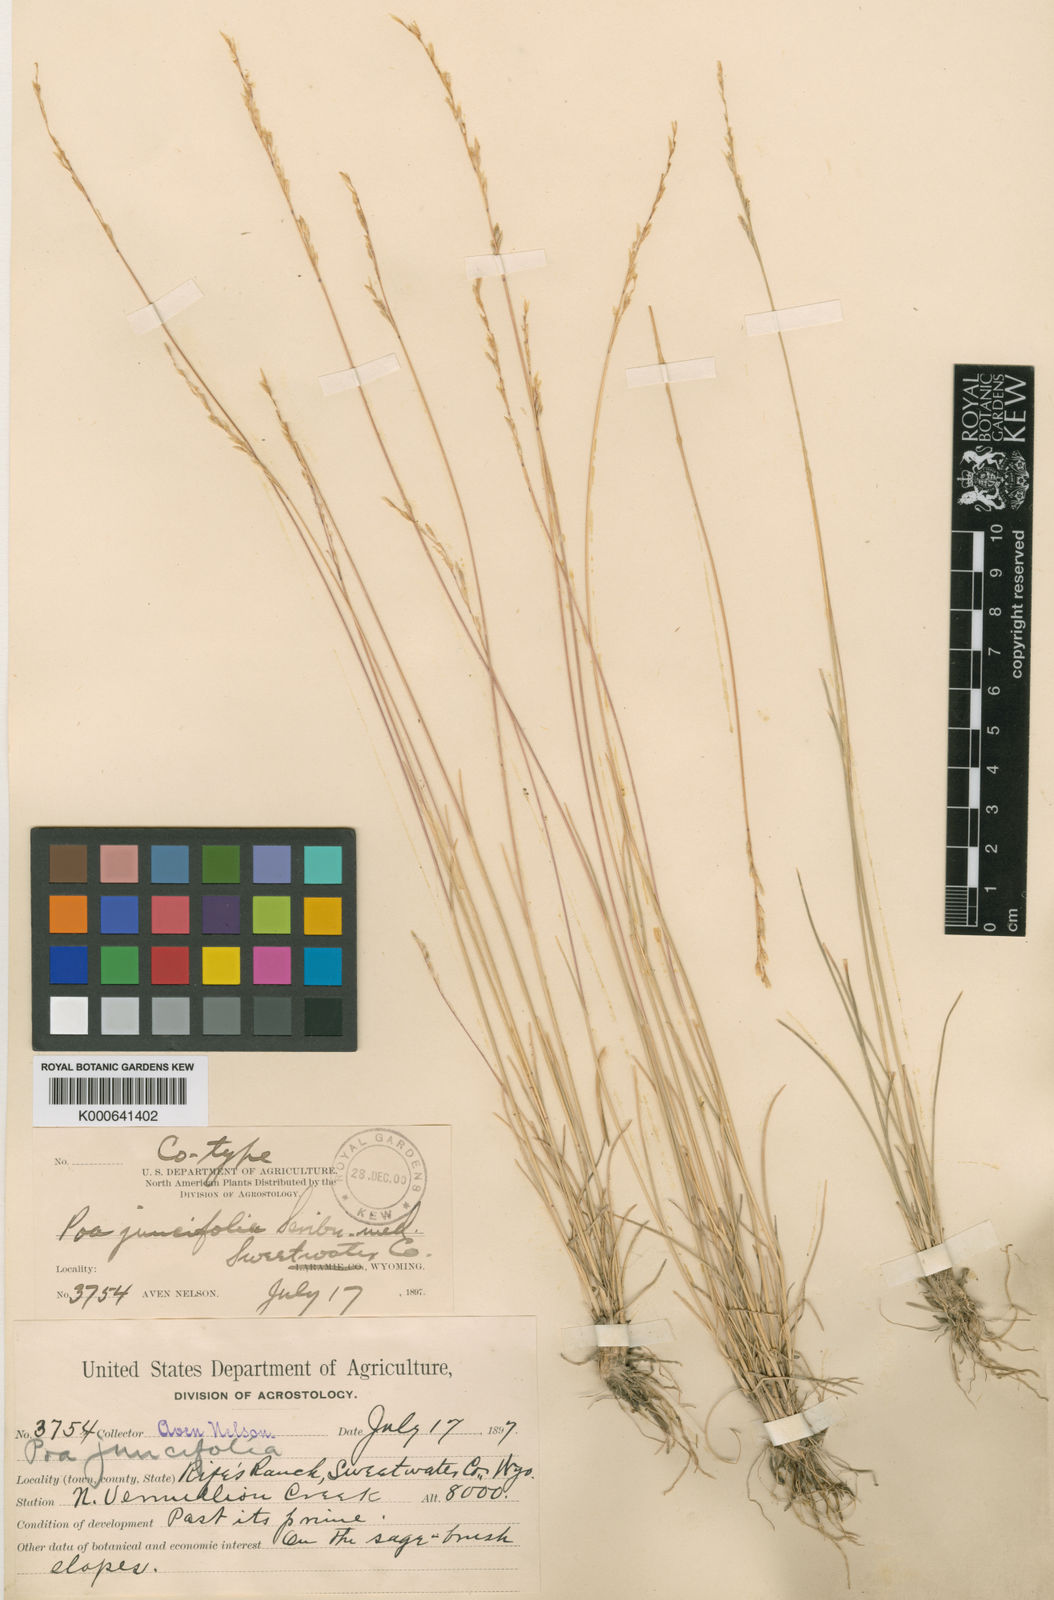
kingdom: Plantae
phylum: Tracheophyta
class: Liliopsida
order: Poales
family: Poaceae
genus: Poa
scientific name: Poa secunda
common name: Sandberg bluegrass
